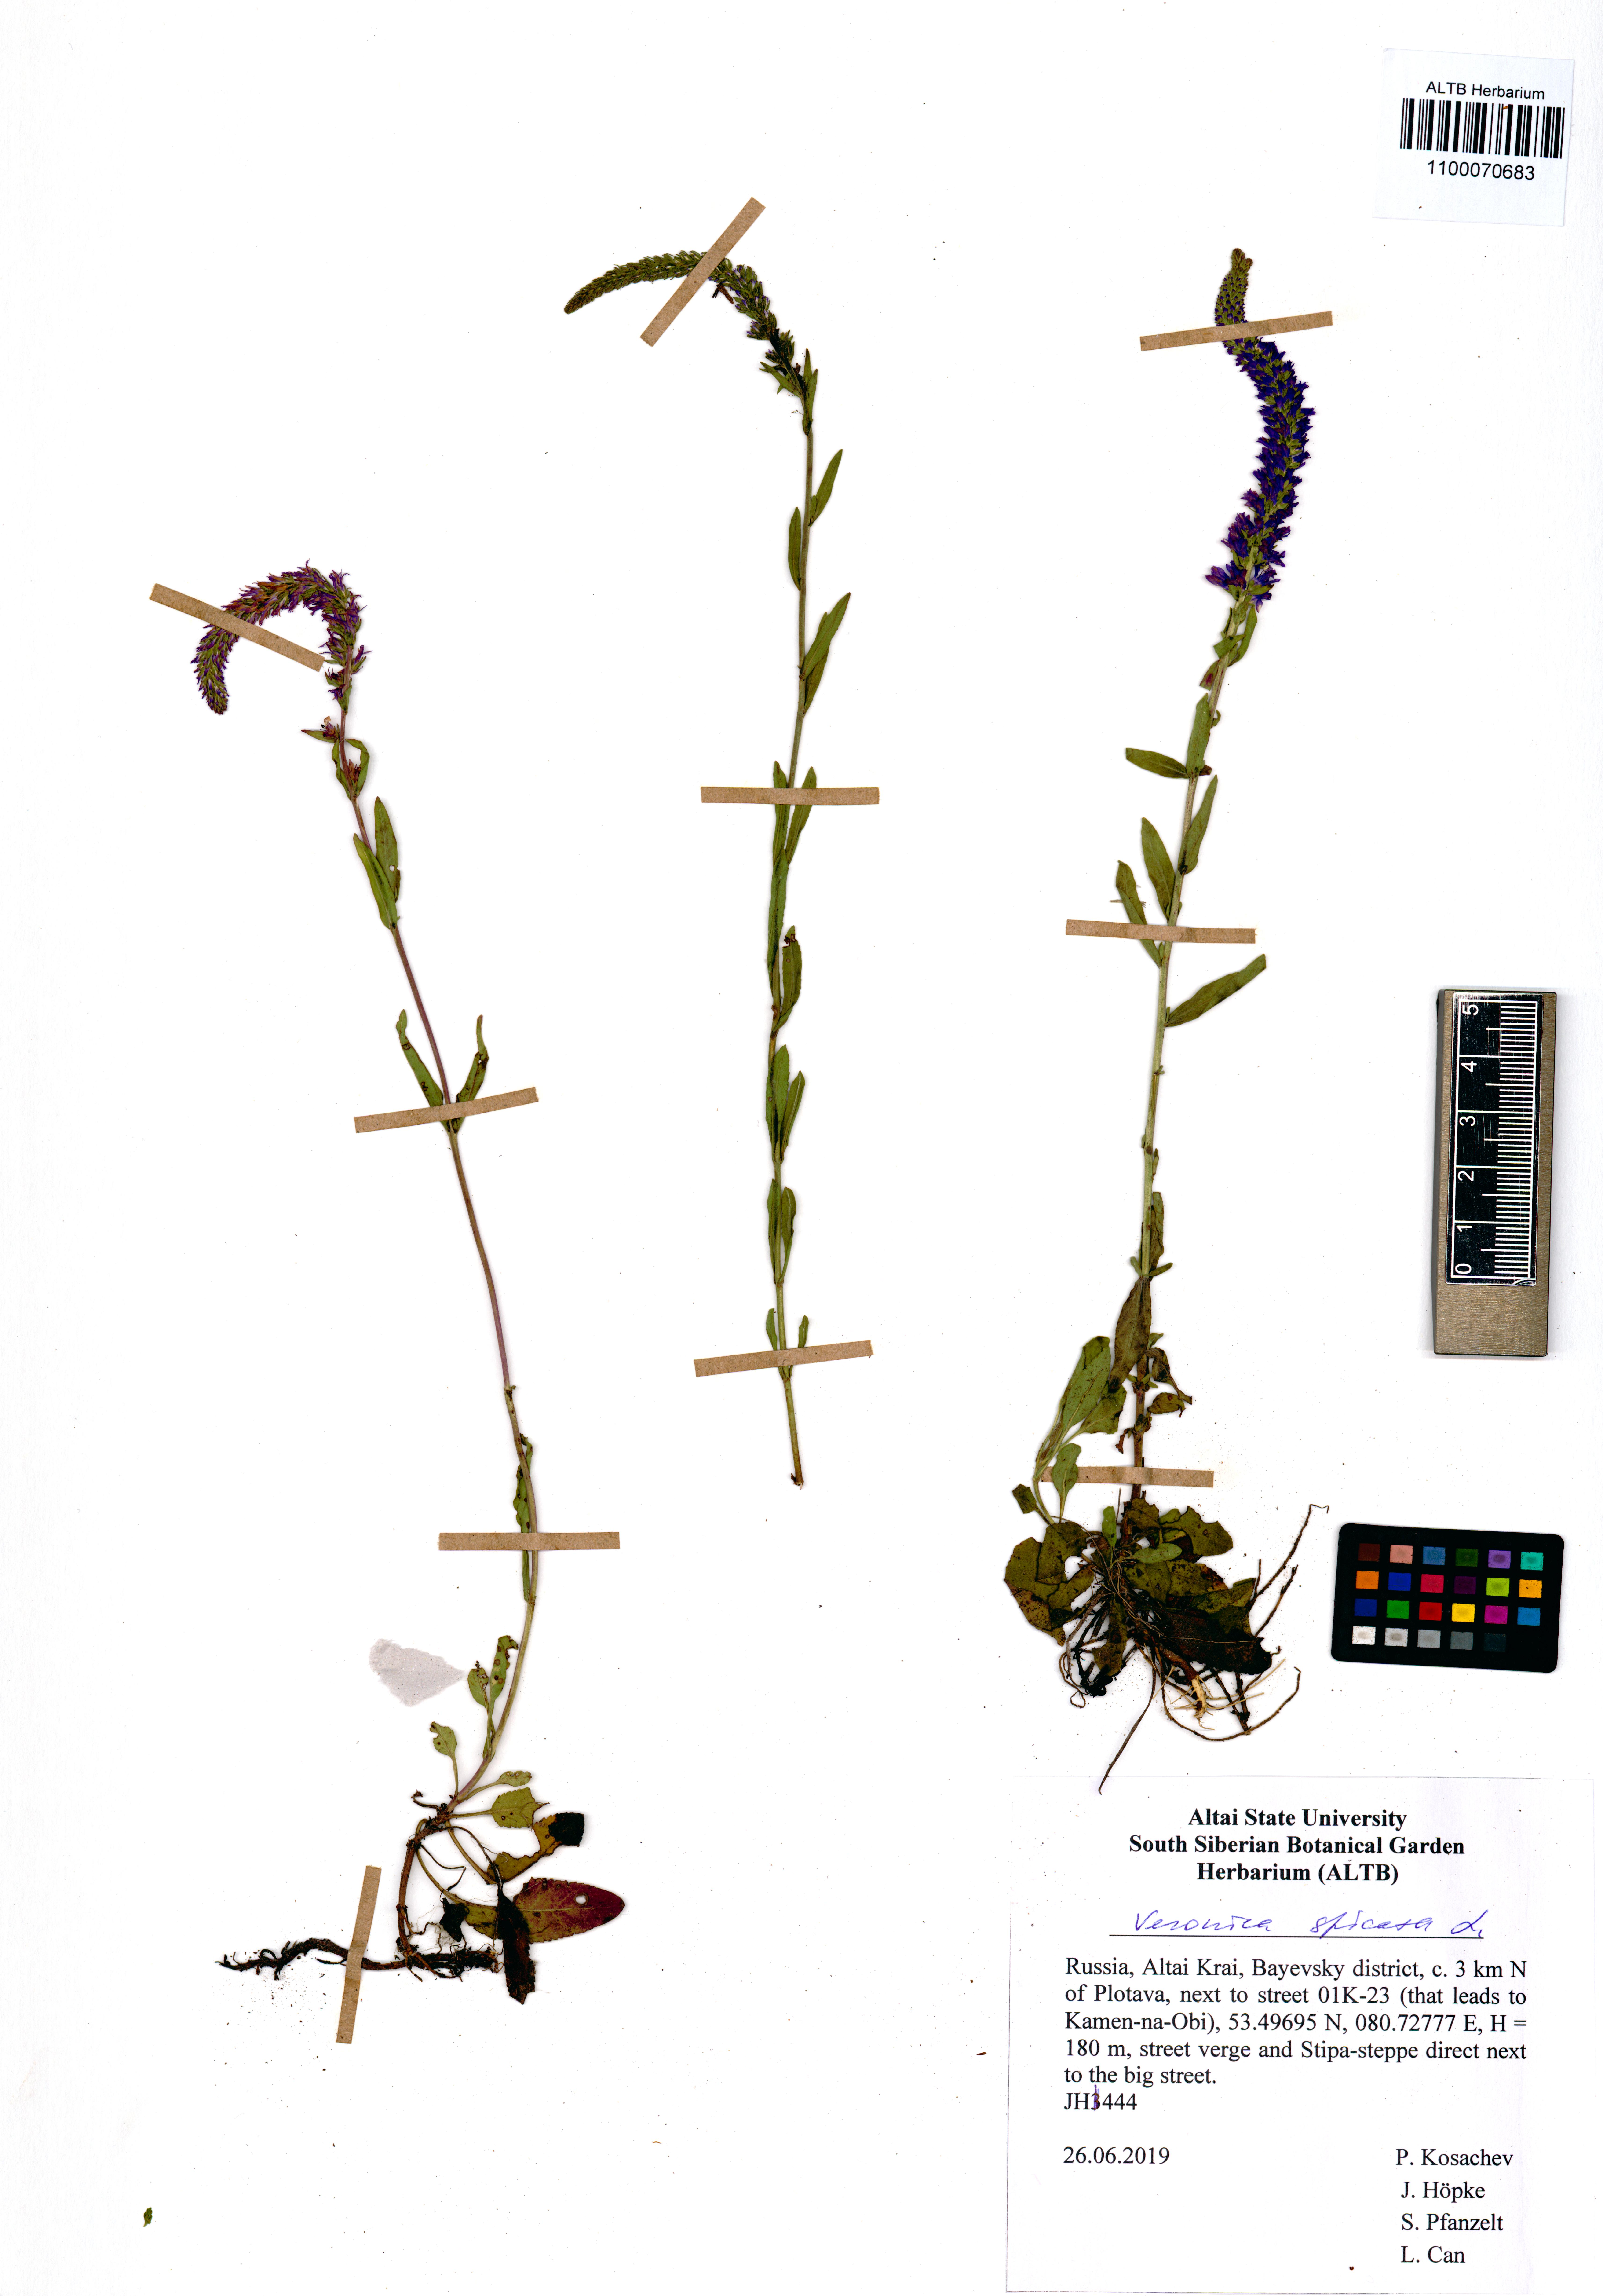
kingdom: Plantae
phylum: Tracheophyta
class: Magnoliopsida
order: Lamiales
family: Plantaginaceae
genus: Veronica
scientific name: Veronica spicata
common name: Spiked speedwell
